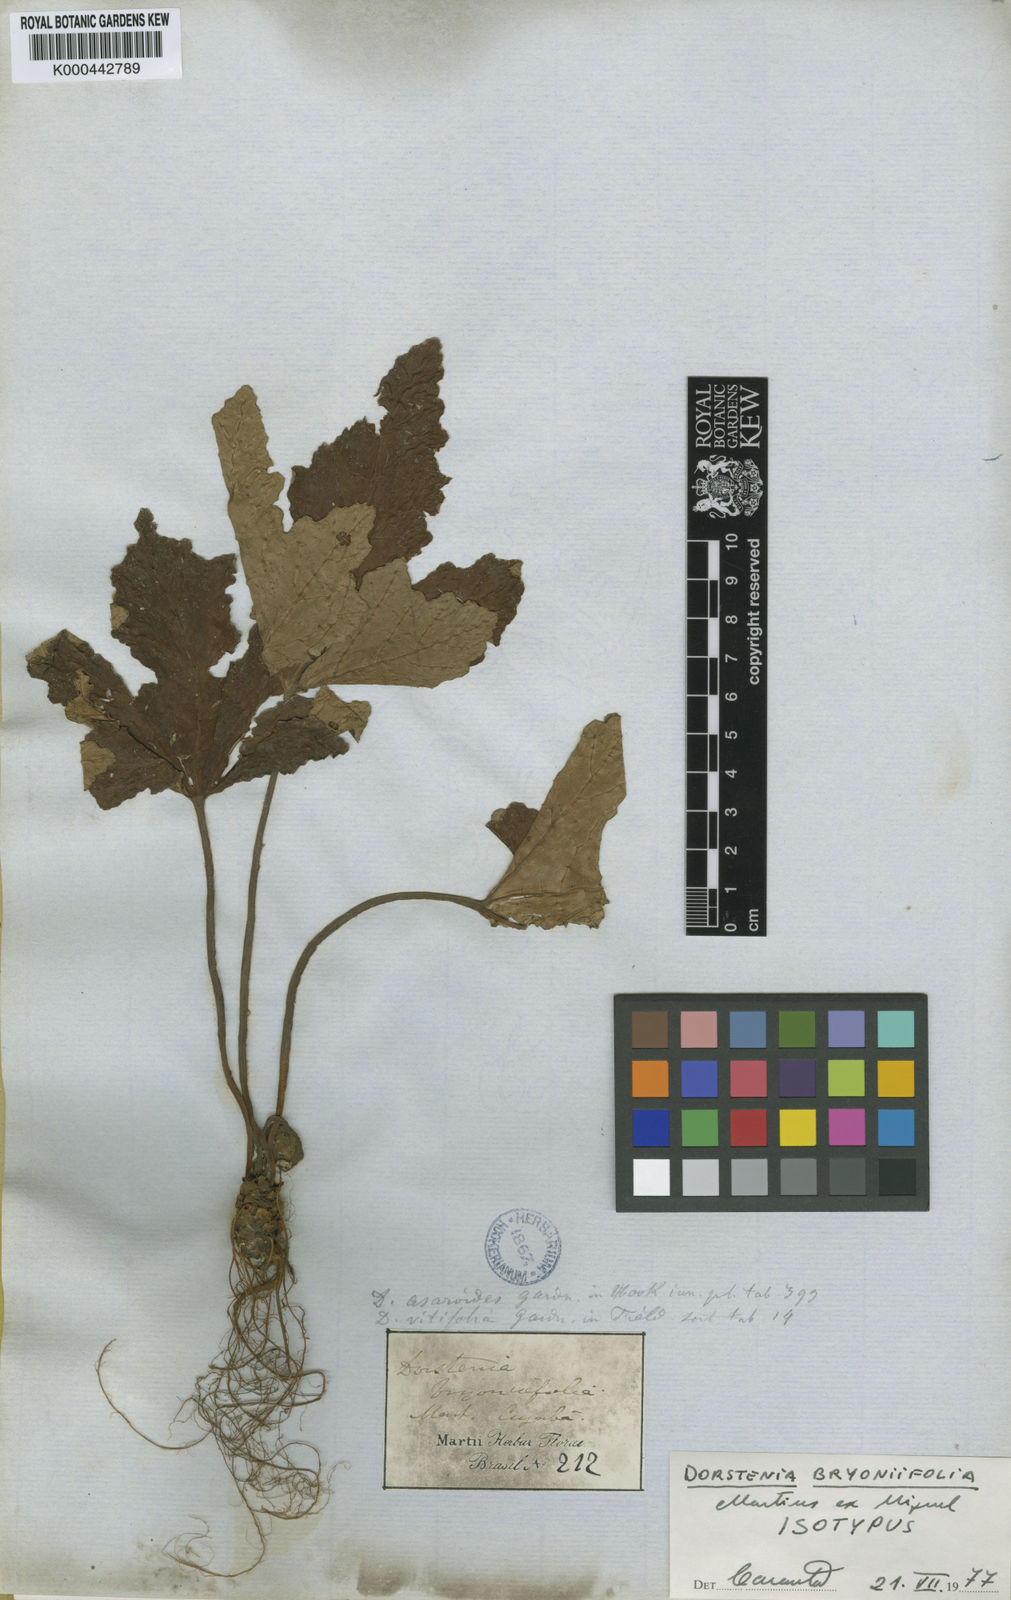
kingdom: Plantae
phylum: Tracheophyta
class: Magnoliopsida
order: Rosales
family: Moraceae
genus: Dorstenia
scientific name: Dorstenia cayapia
